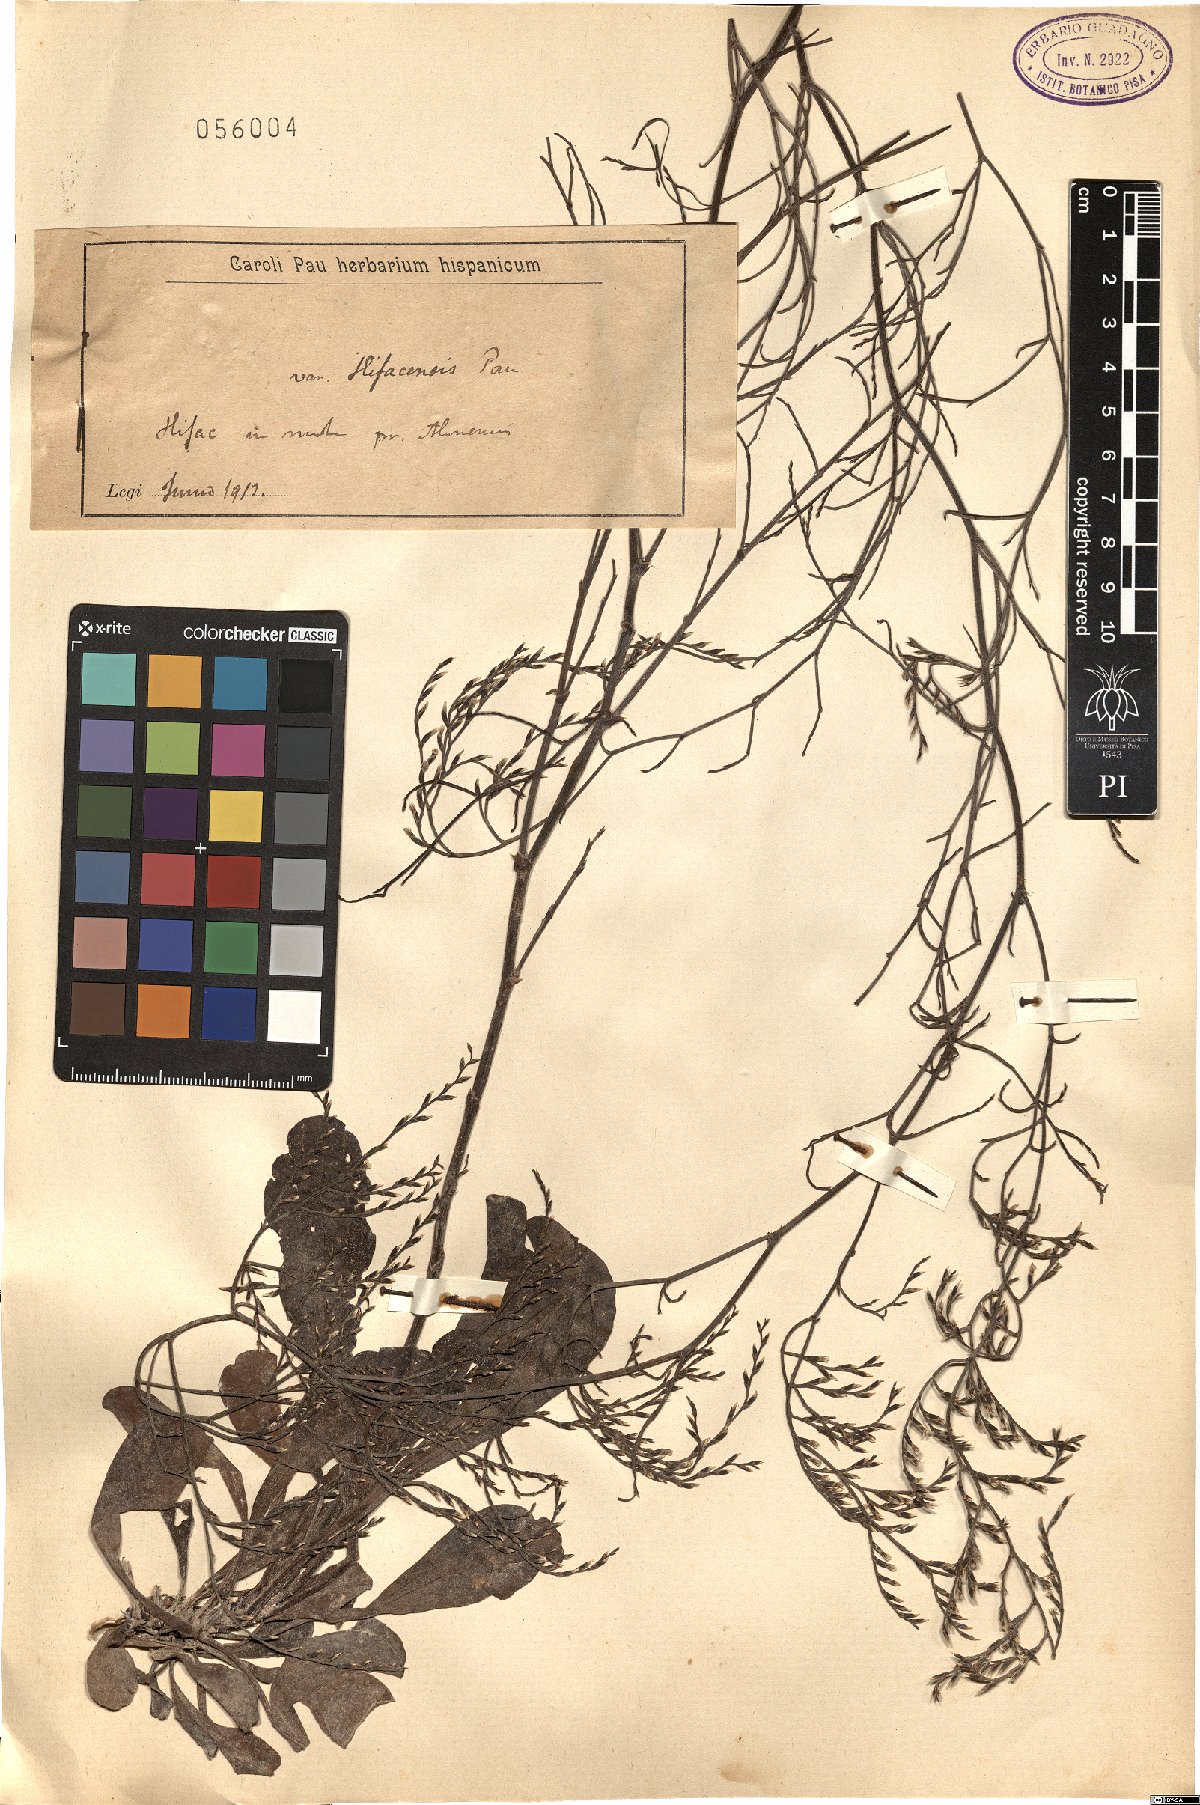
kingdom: Plantae
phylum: Tracheophyta
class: Magnoliopsida
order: Caryophyllales
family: Plumbaginaceae
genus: Armeria
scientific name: Armeria
